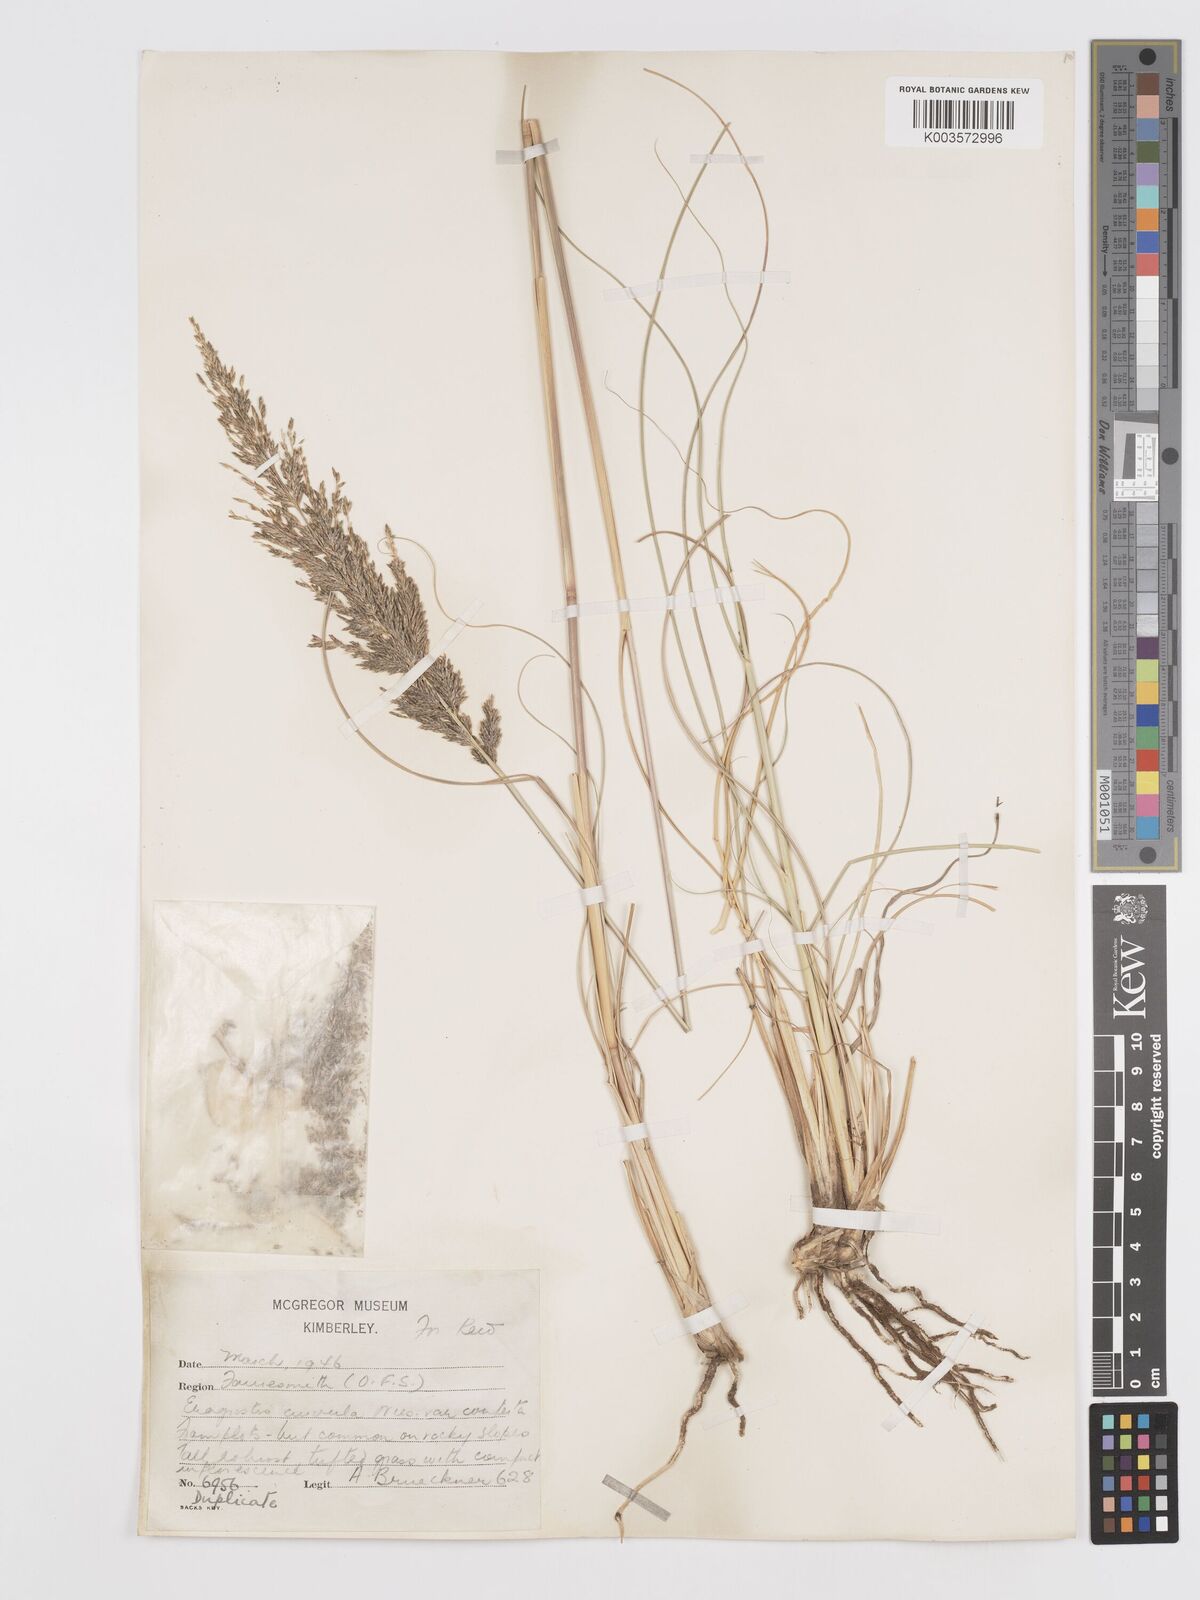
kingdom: Plantae
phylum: Tracheophyta
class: Liliopsida
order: Poales
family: Poaceae
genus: Eragrostis
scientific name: Eragrostis curvula
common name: African love-grass
